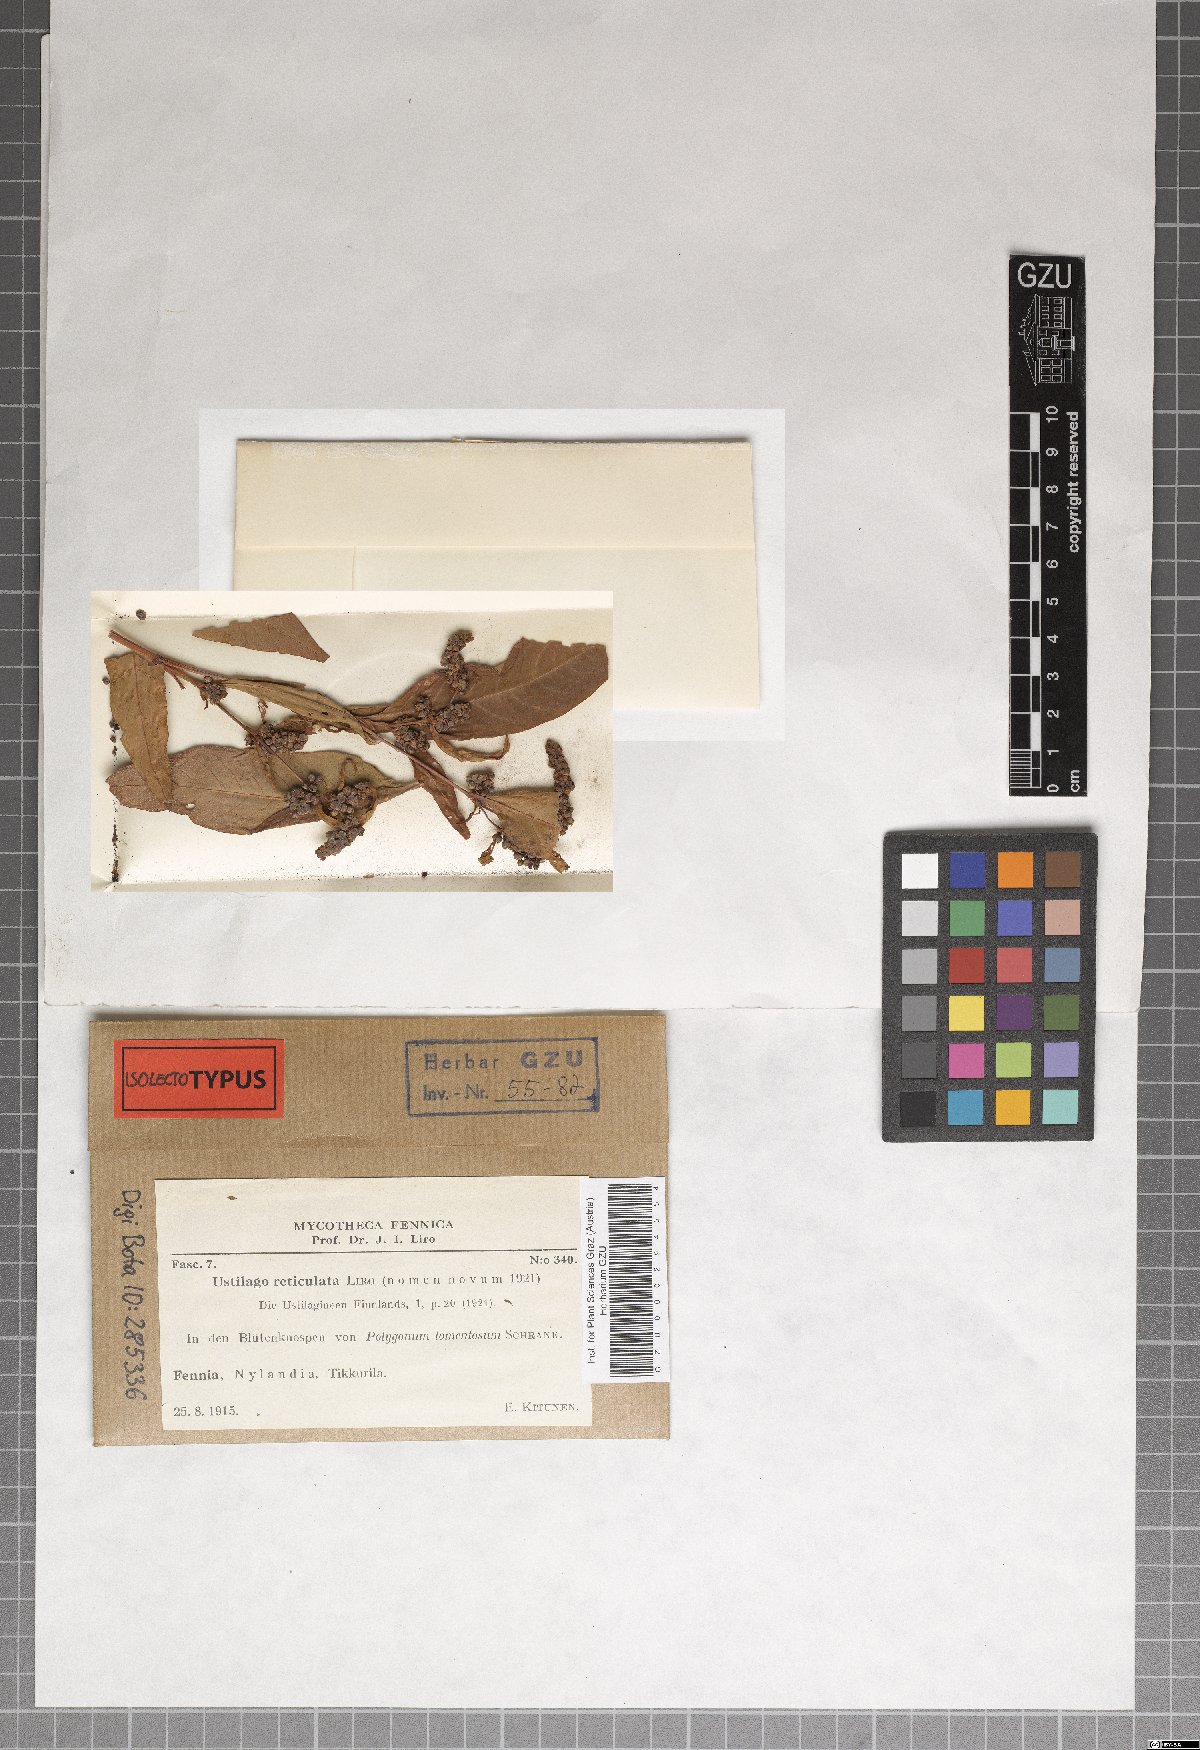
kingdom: Fungi
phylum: Basidiomycota
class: Microbotryomycetes
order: Microbotryales
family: Microbotryaceae
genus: Microbotryum
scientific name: Microbotryum reticulatum
